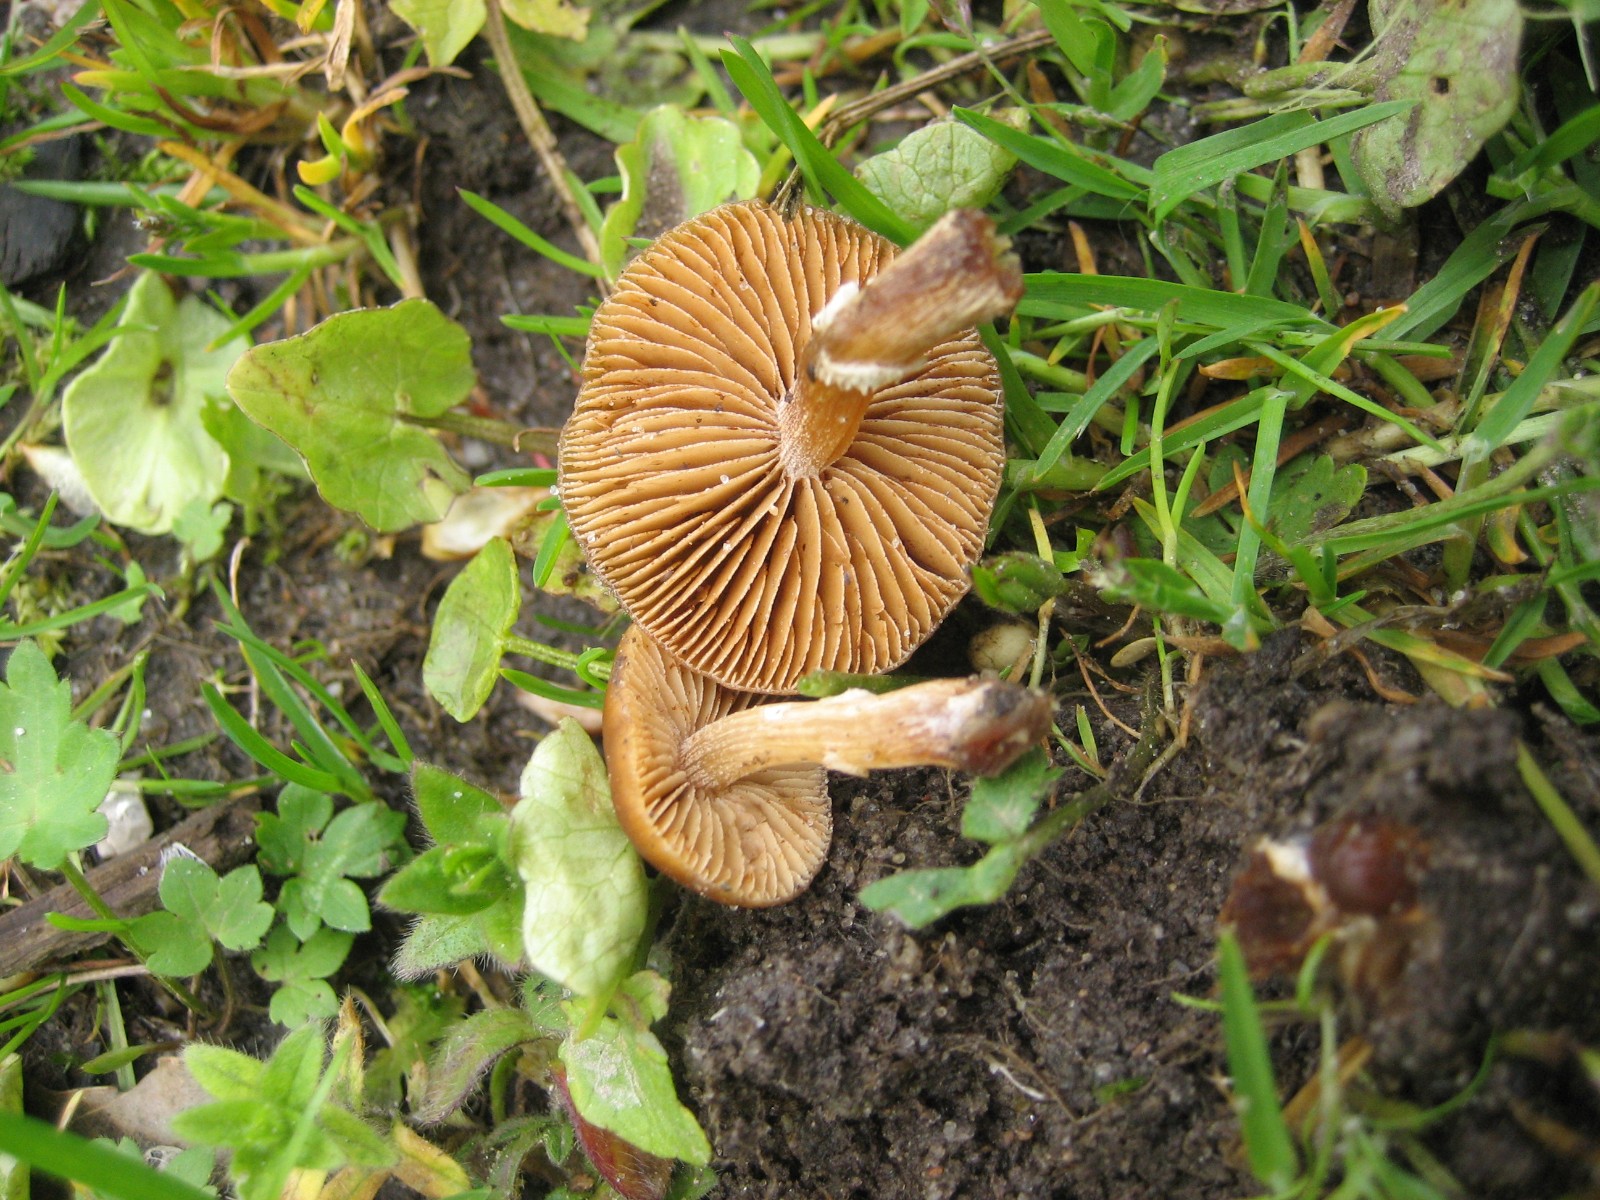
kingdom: Fungi
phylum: Basidiomycota
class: Agaricomycetes
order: Agaricales
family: Bolbitiaceae
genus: Conocybe
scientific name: Conocybe aporos
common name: tidlig dansehat
